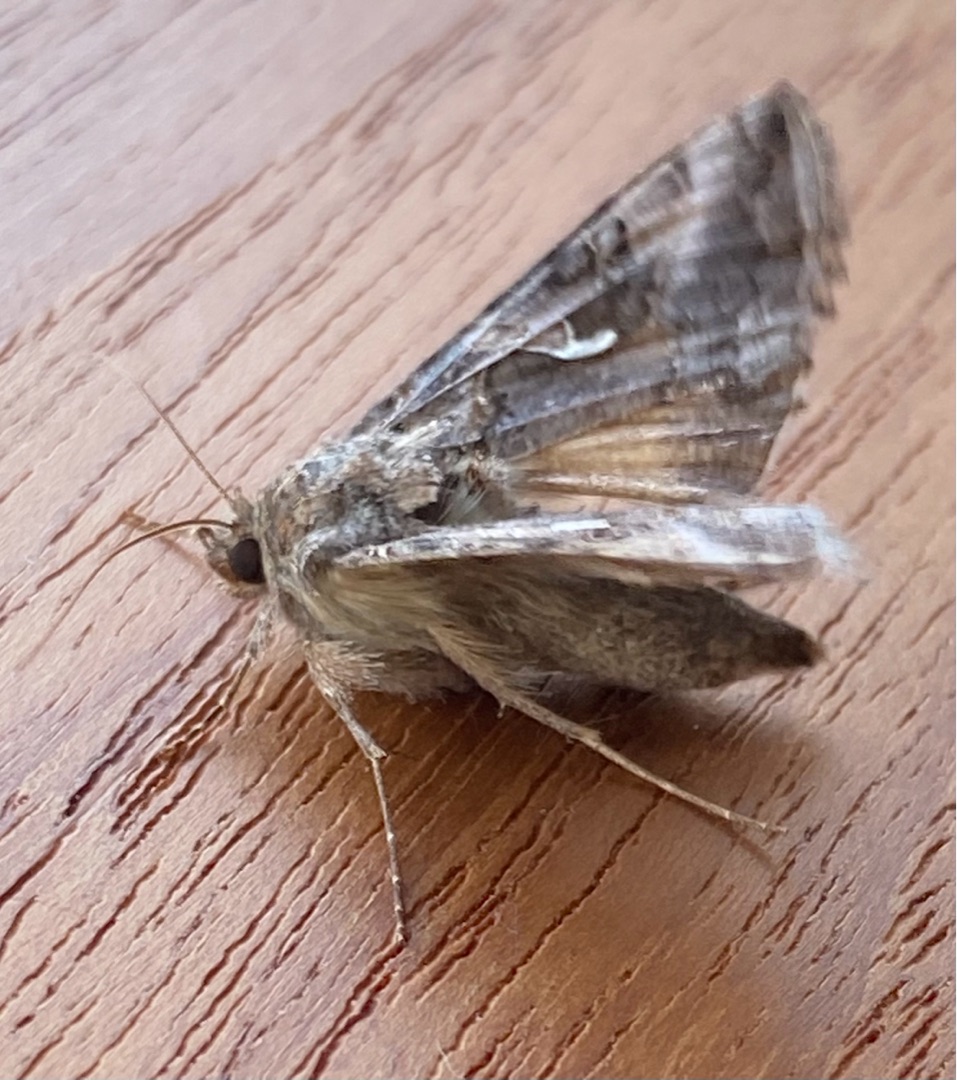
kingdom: Animalia
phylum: Arthropoda
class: Insecta
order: Lepidoptera
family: Noctuidae
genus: Autographa
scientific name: Autographa gamma
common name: Gammaugle
